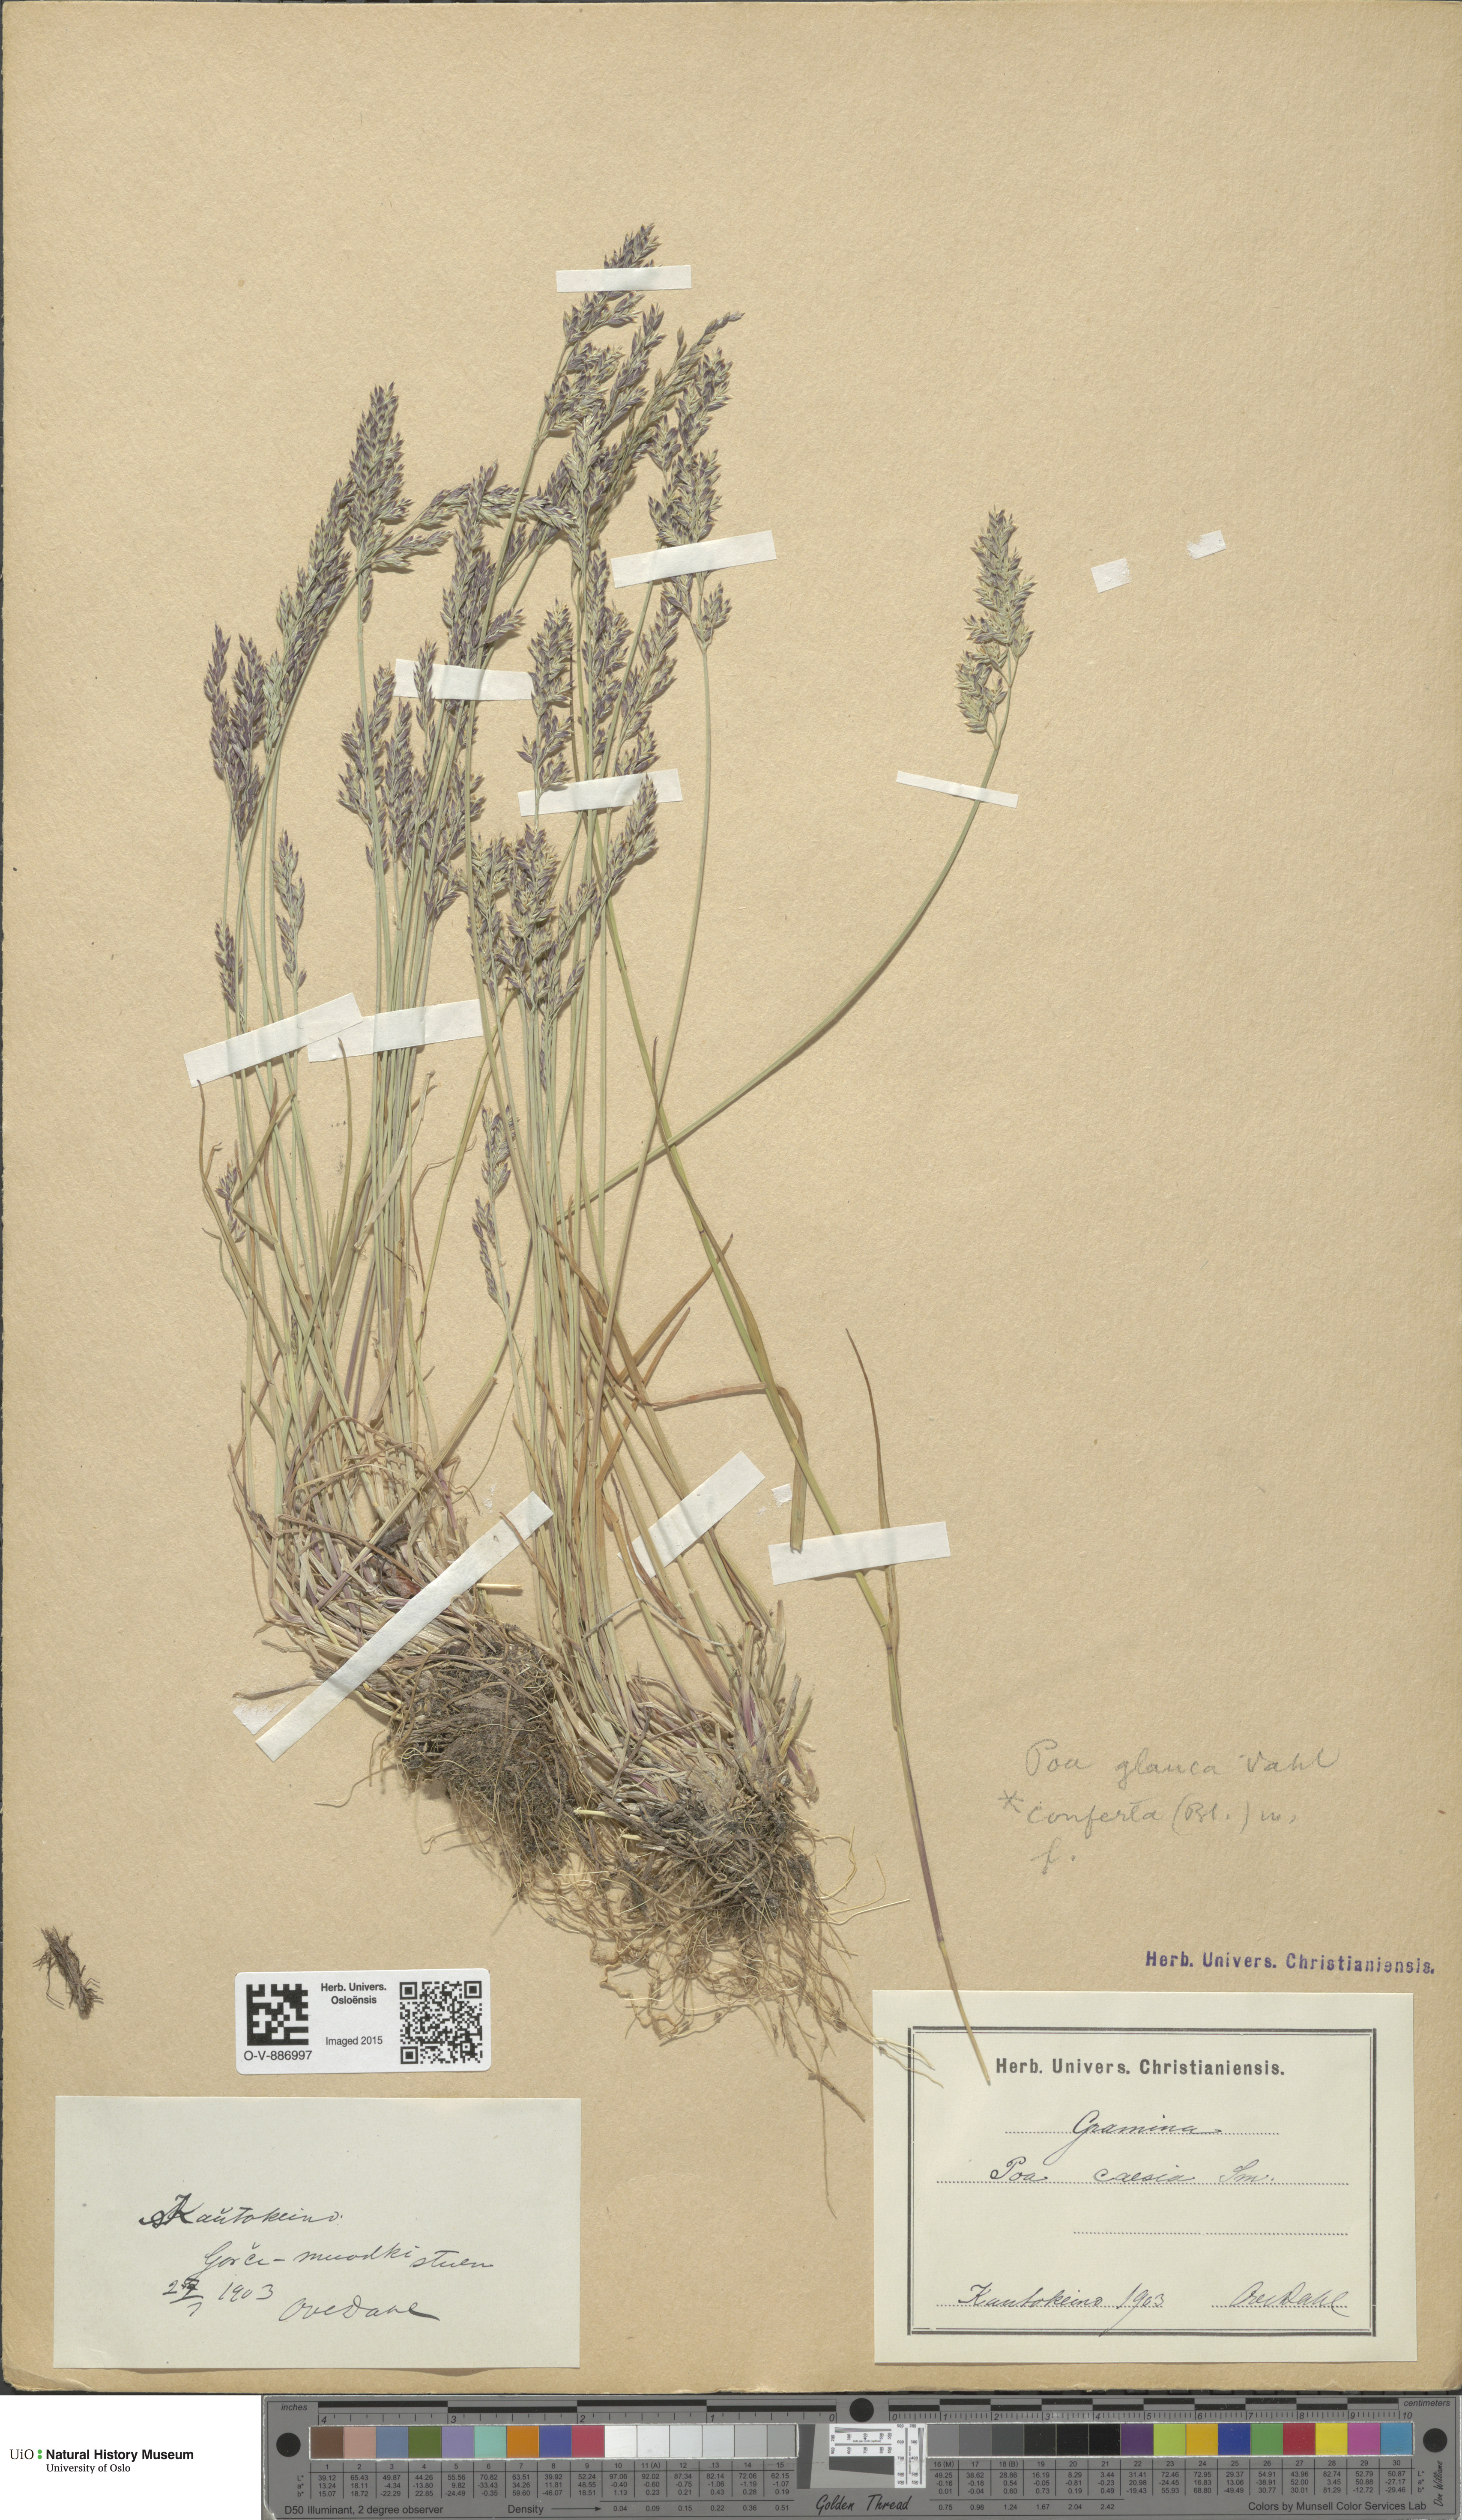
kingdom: Plantae
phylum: Tracheophyta
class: Liliopsida
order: Poales
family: Poaceae
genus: Poa
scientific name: Poa glauca
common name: Glaucous bluegrass
